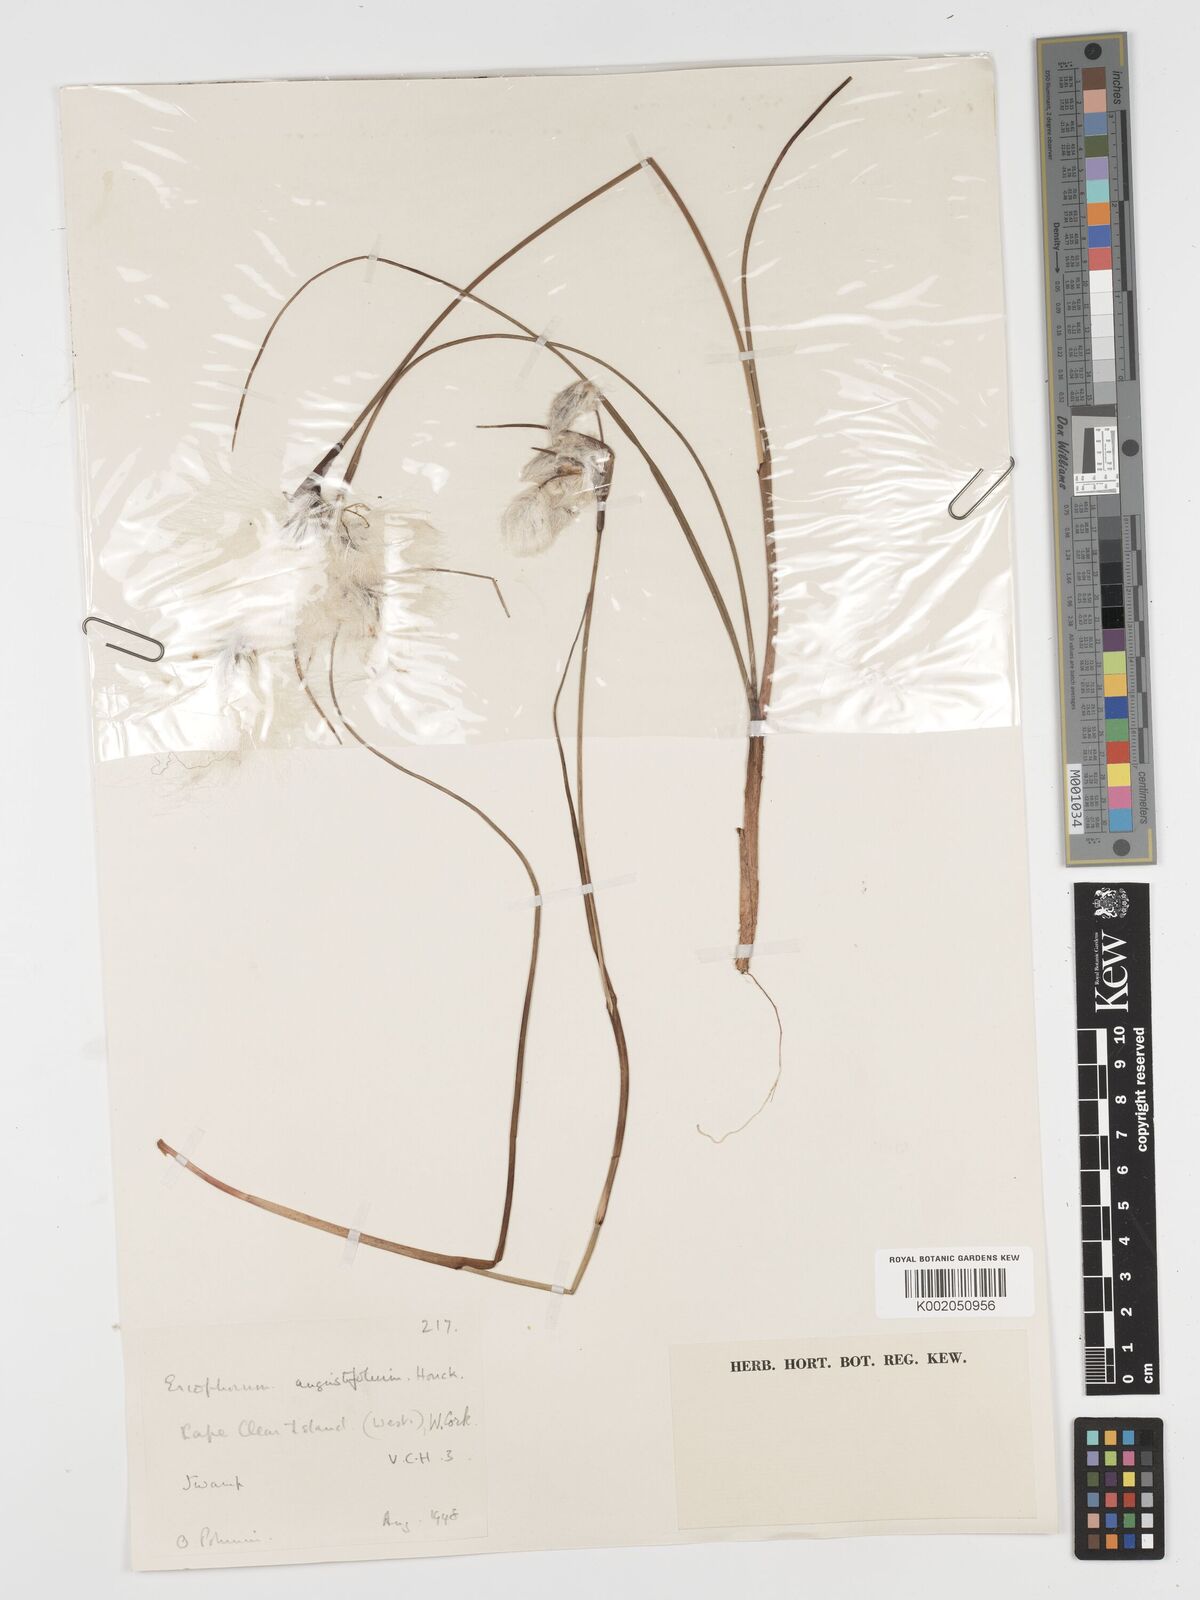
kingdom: Plantae
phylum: Tracheophyta
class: Liliopsida
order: Poales
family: Cyperaceae
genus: Eriophorum
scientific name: Eriophorum angustifolium
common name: Common cottongrass
